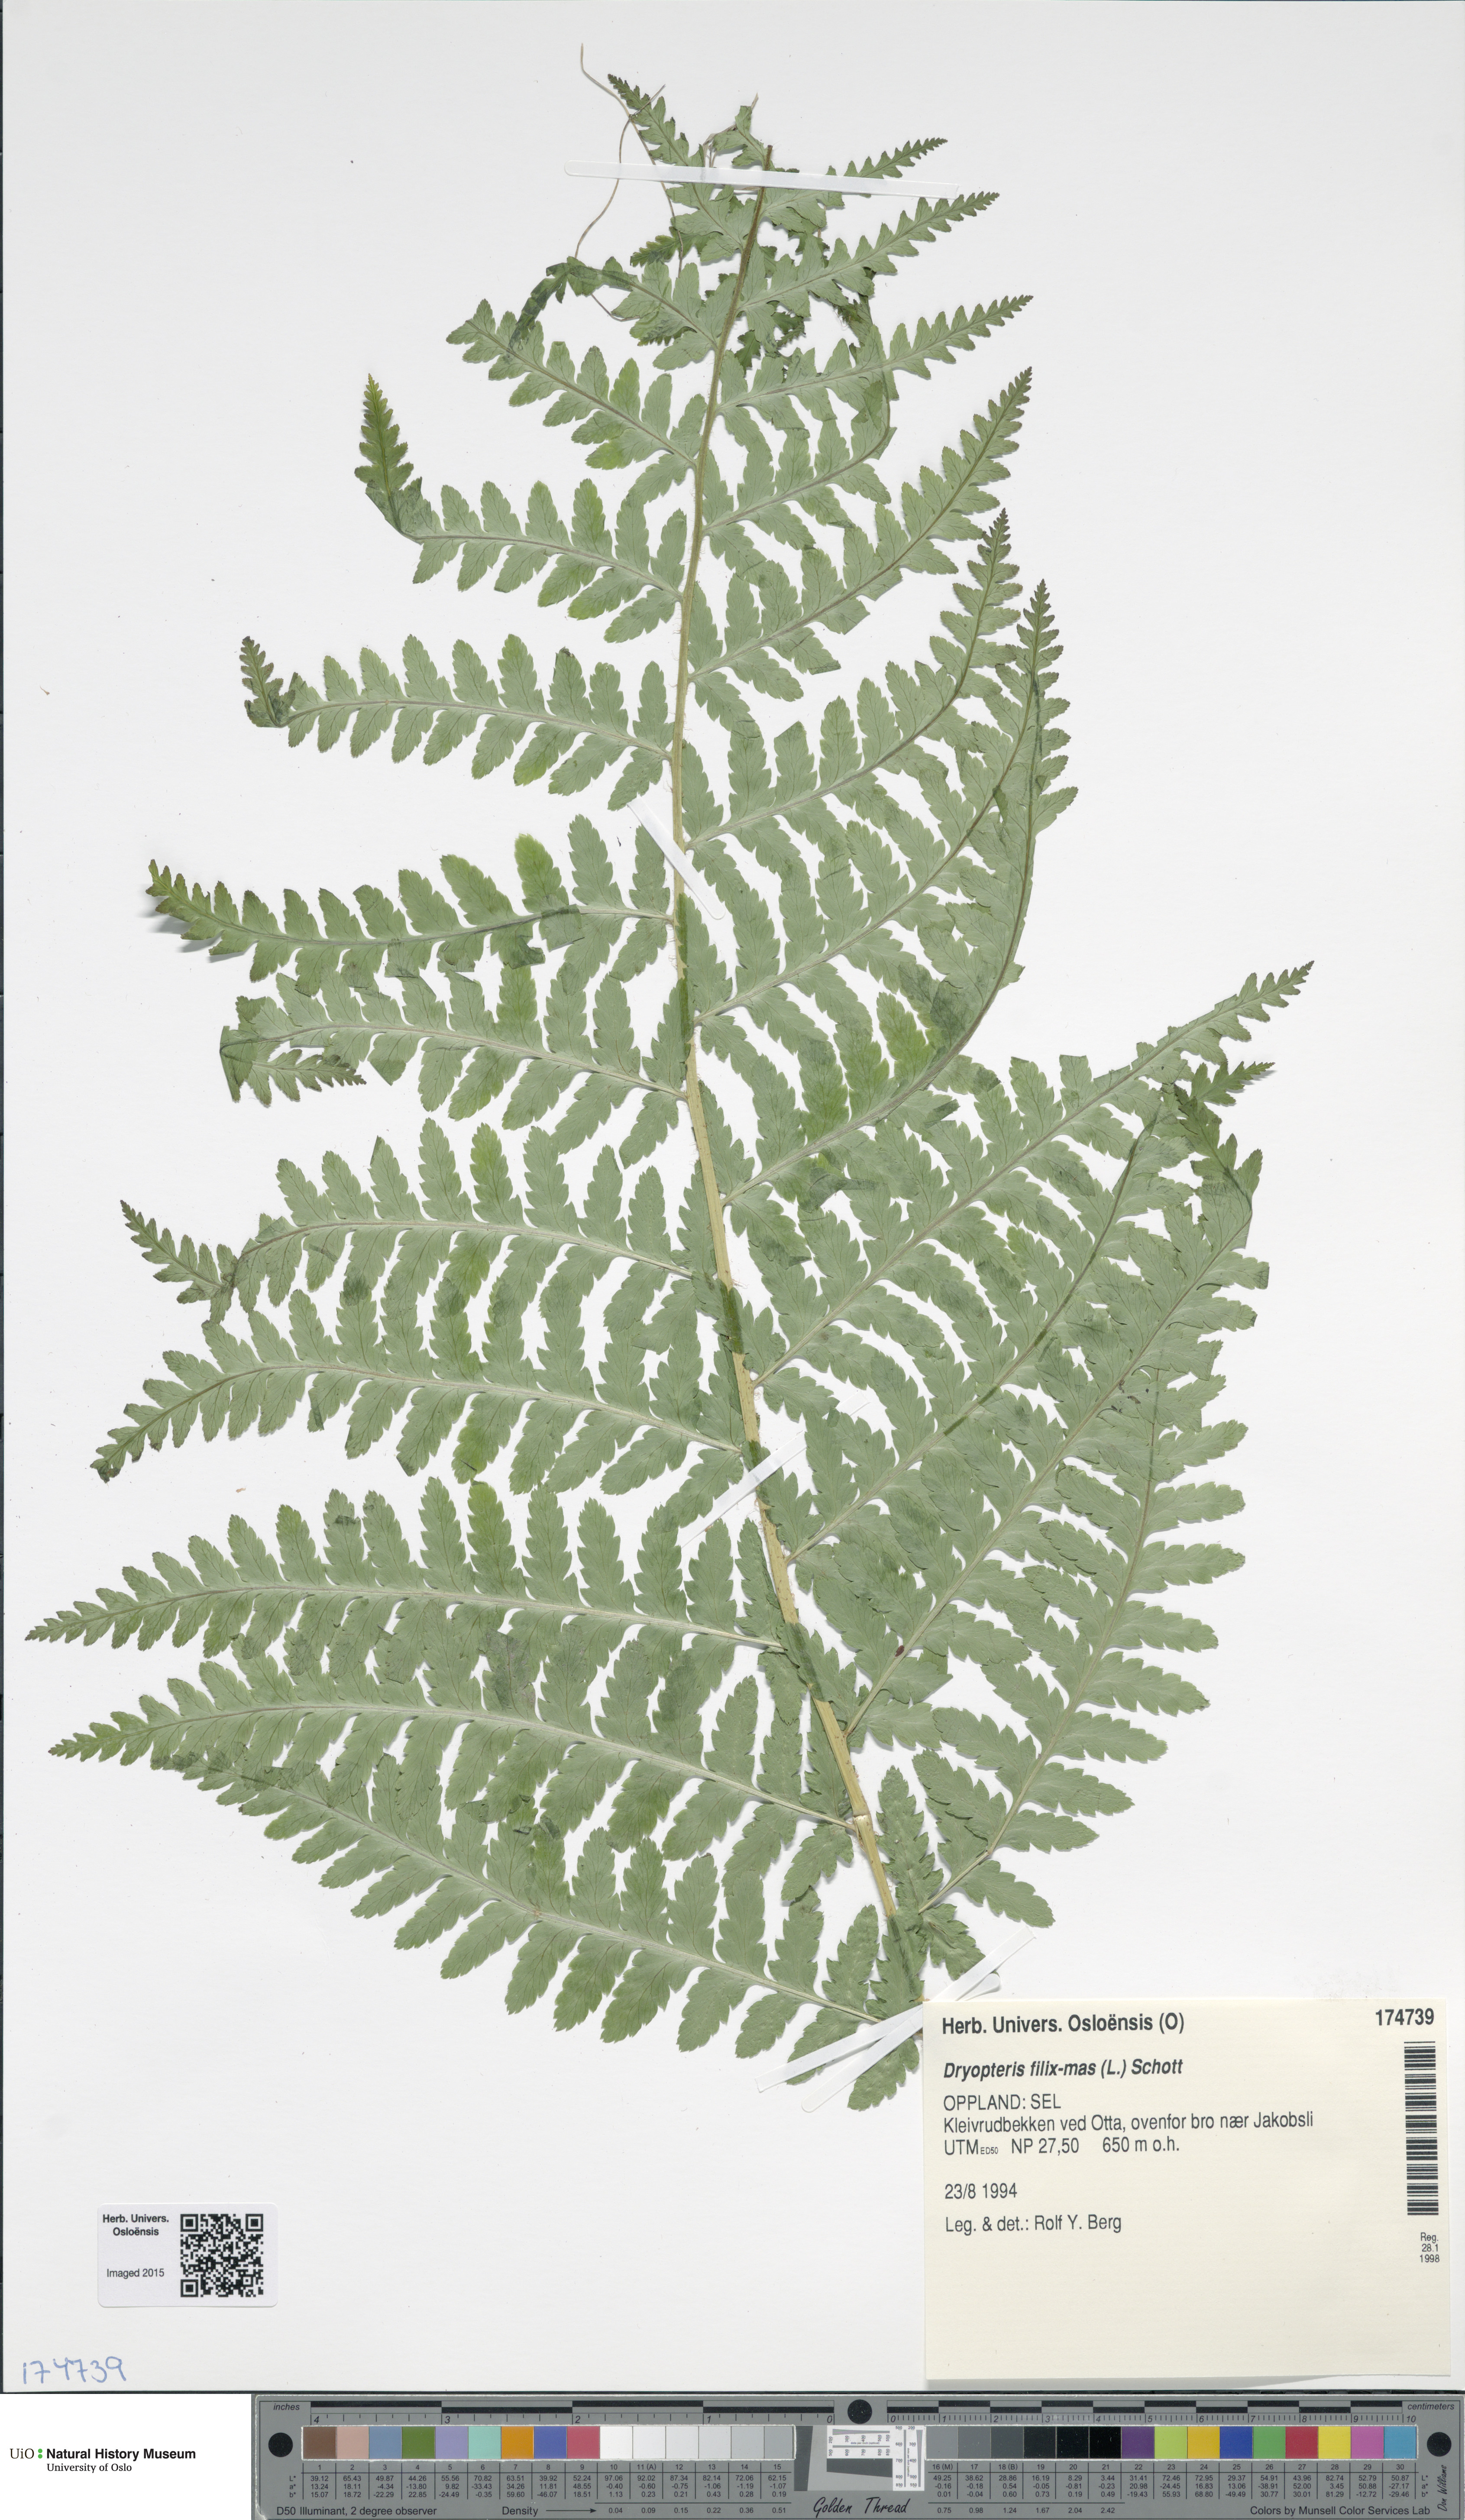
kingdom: Plantae
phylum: Tracheophyta
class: Polypodiopsida
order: Polypodiales
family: Dryopteridaceae
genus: Dryopteris
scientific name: Dryopteris filix-mas
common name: Male fern
